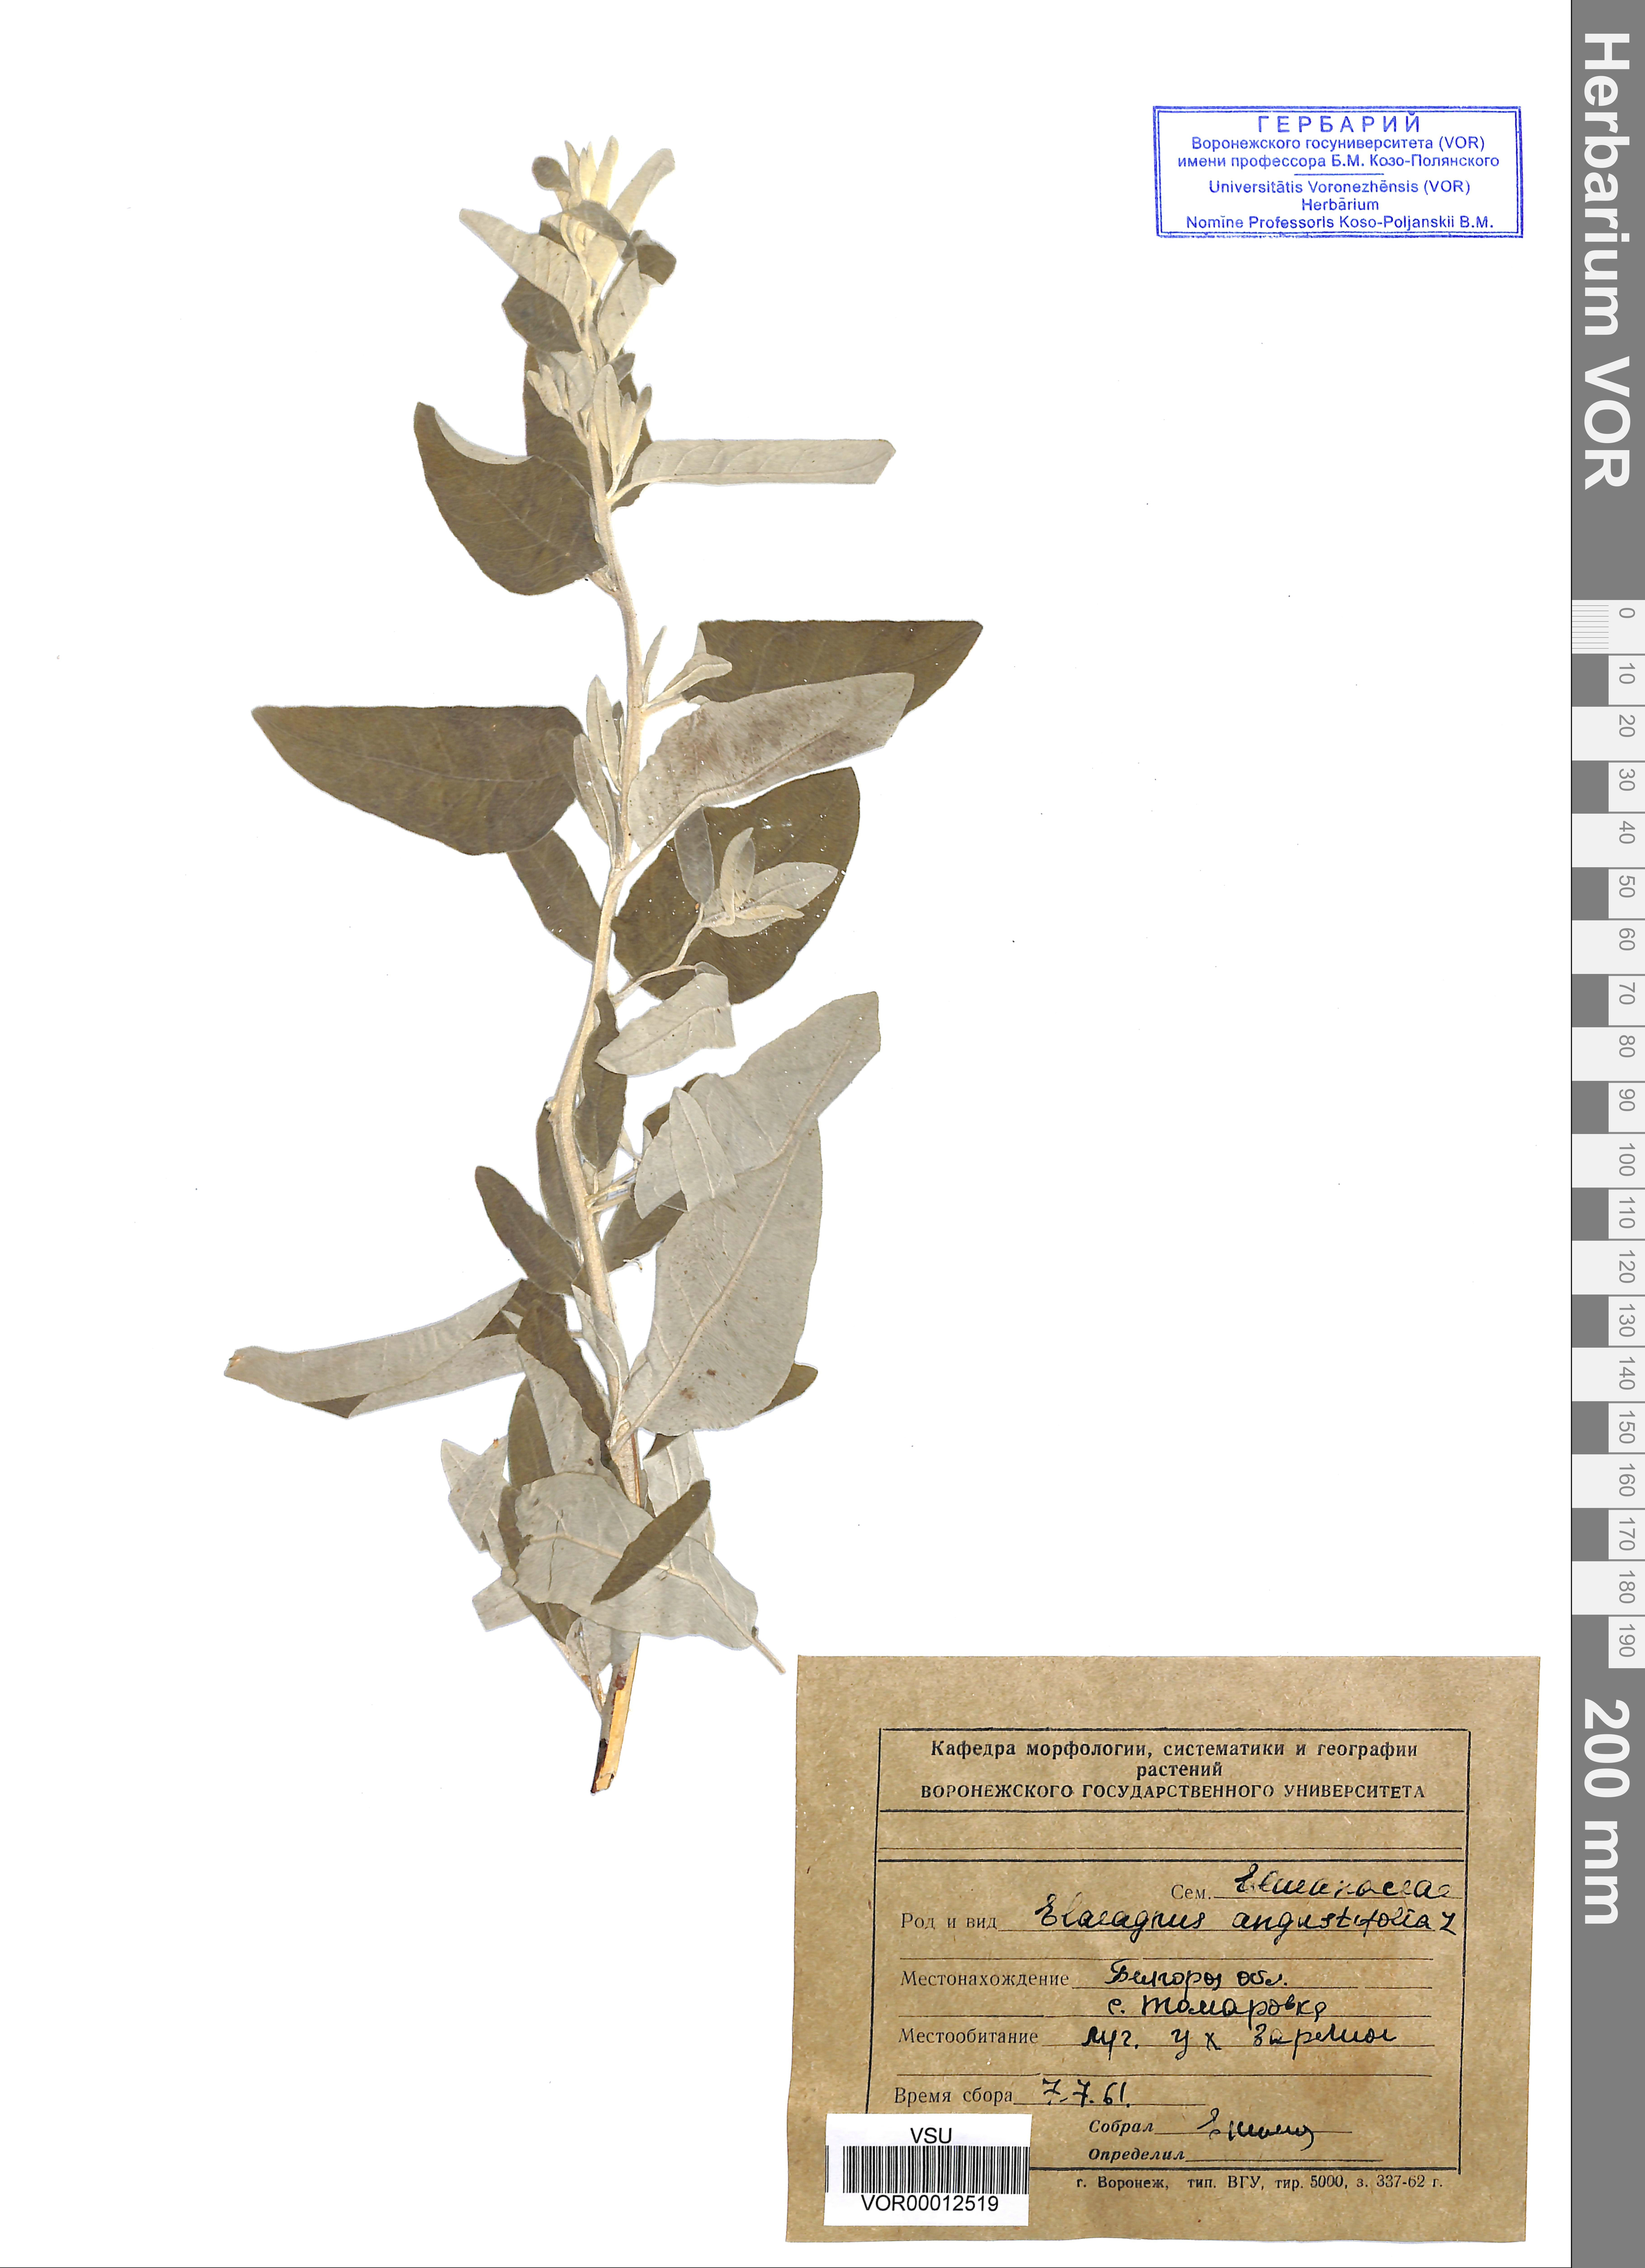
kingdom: Plantae
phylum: Tracheophyta
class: Magnoliopsida
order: Rosales
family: Elaeagnaceae
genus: Elaeagnus
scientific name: Elaeagnus angustifolia
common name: Russian olive
